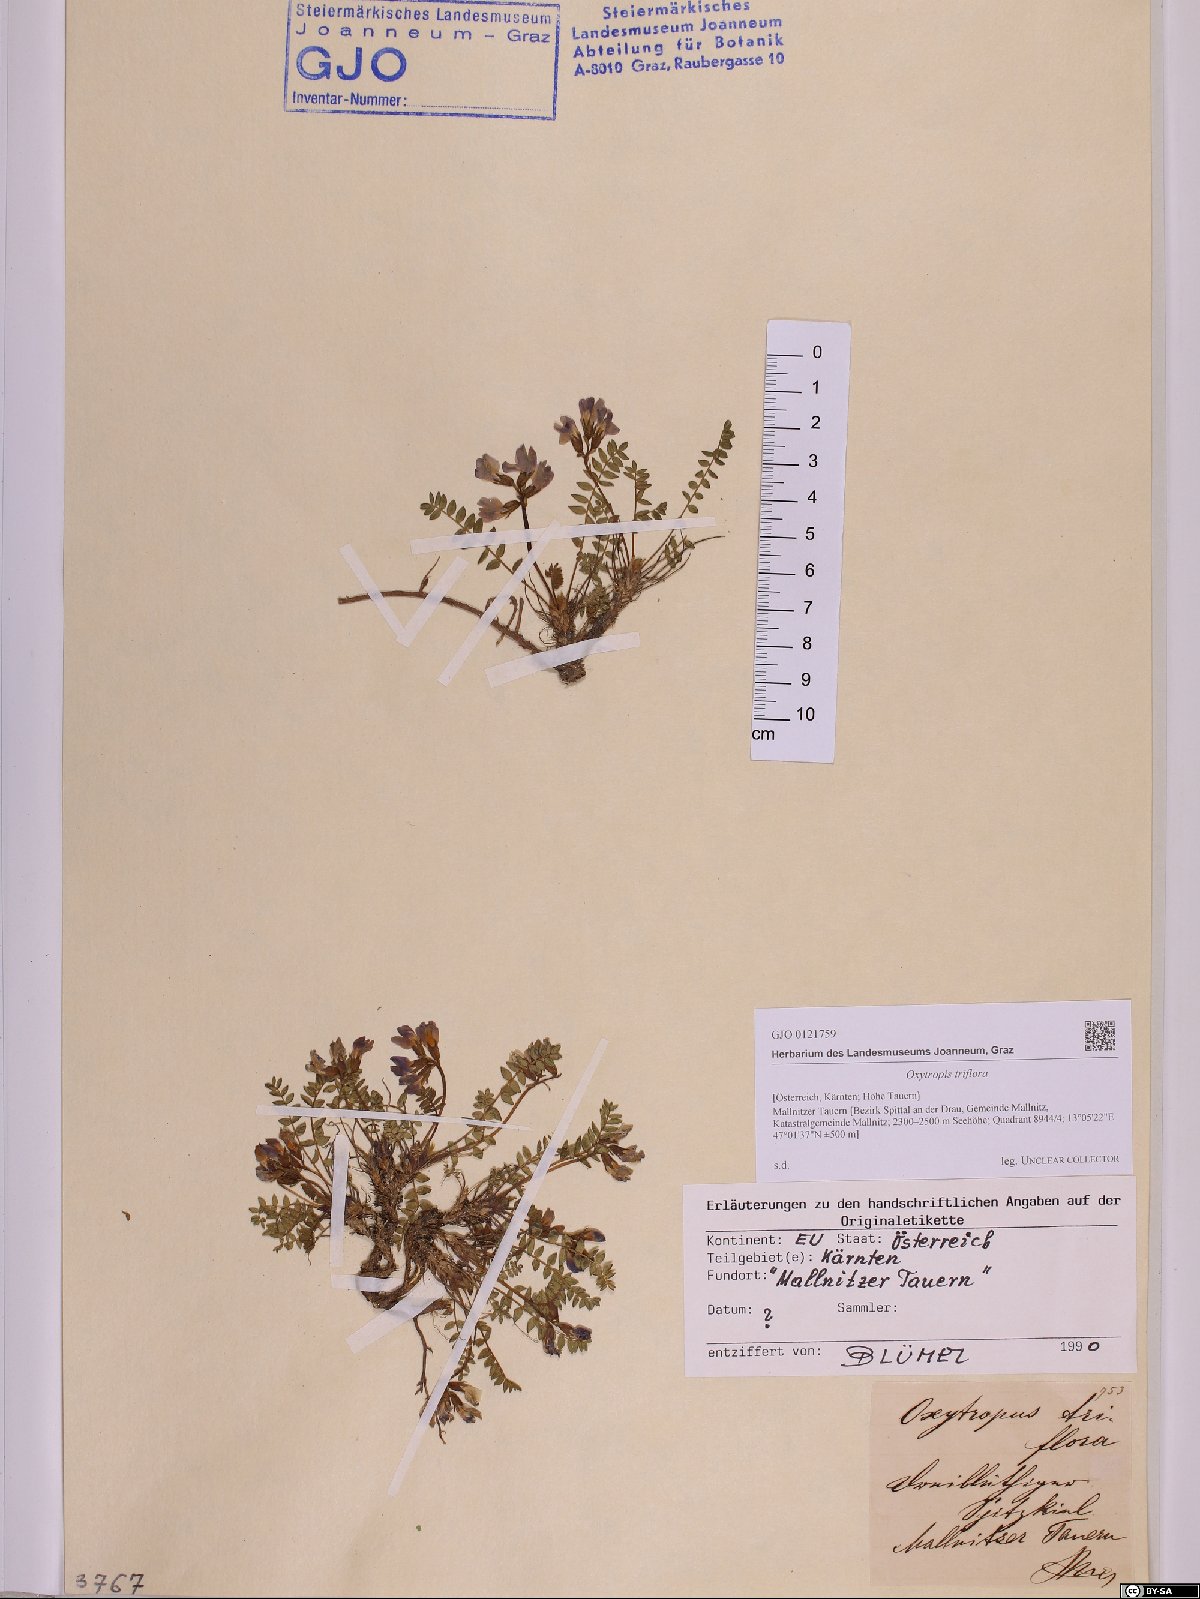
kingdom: Plantae
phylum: Tracheophyta
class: Magnoliopsida
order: Fabales
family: Fabaceae
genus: Oxytropis
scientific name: Oxytropis triflora
